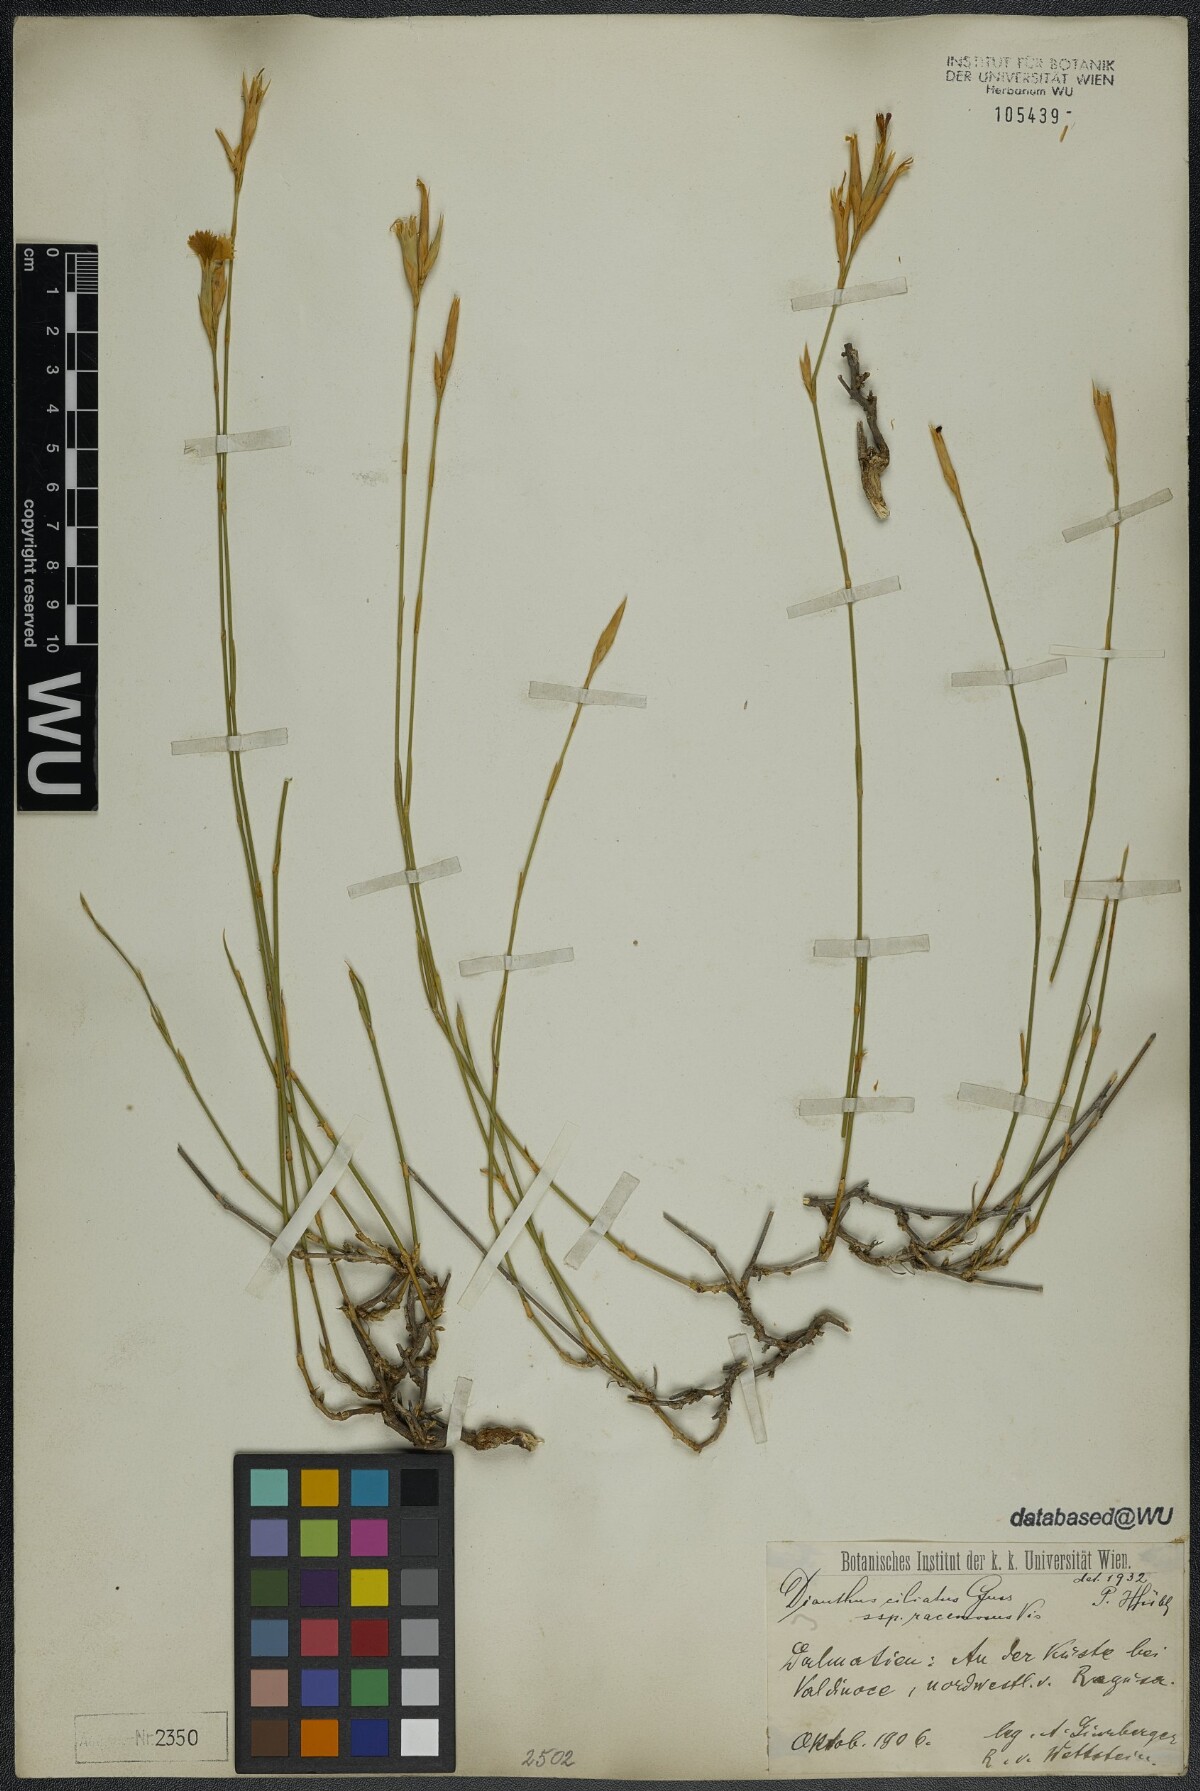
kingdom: Plantae
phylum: Tracheophyta
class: Magnoliopsida
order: Caryophyllales
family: Caryophyllaceae
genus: Dianthus
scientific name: Dianthus ciliatus
